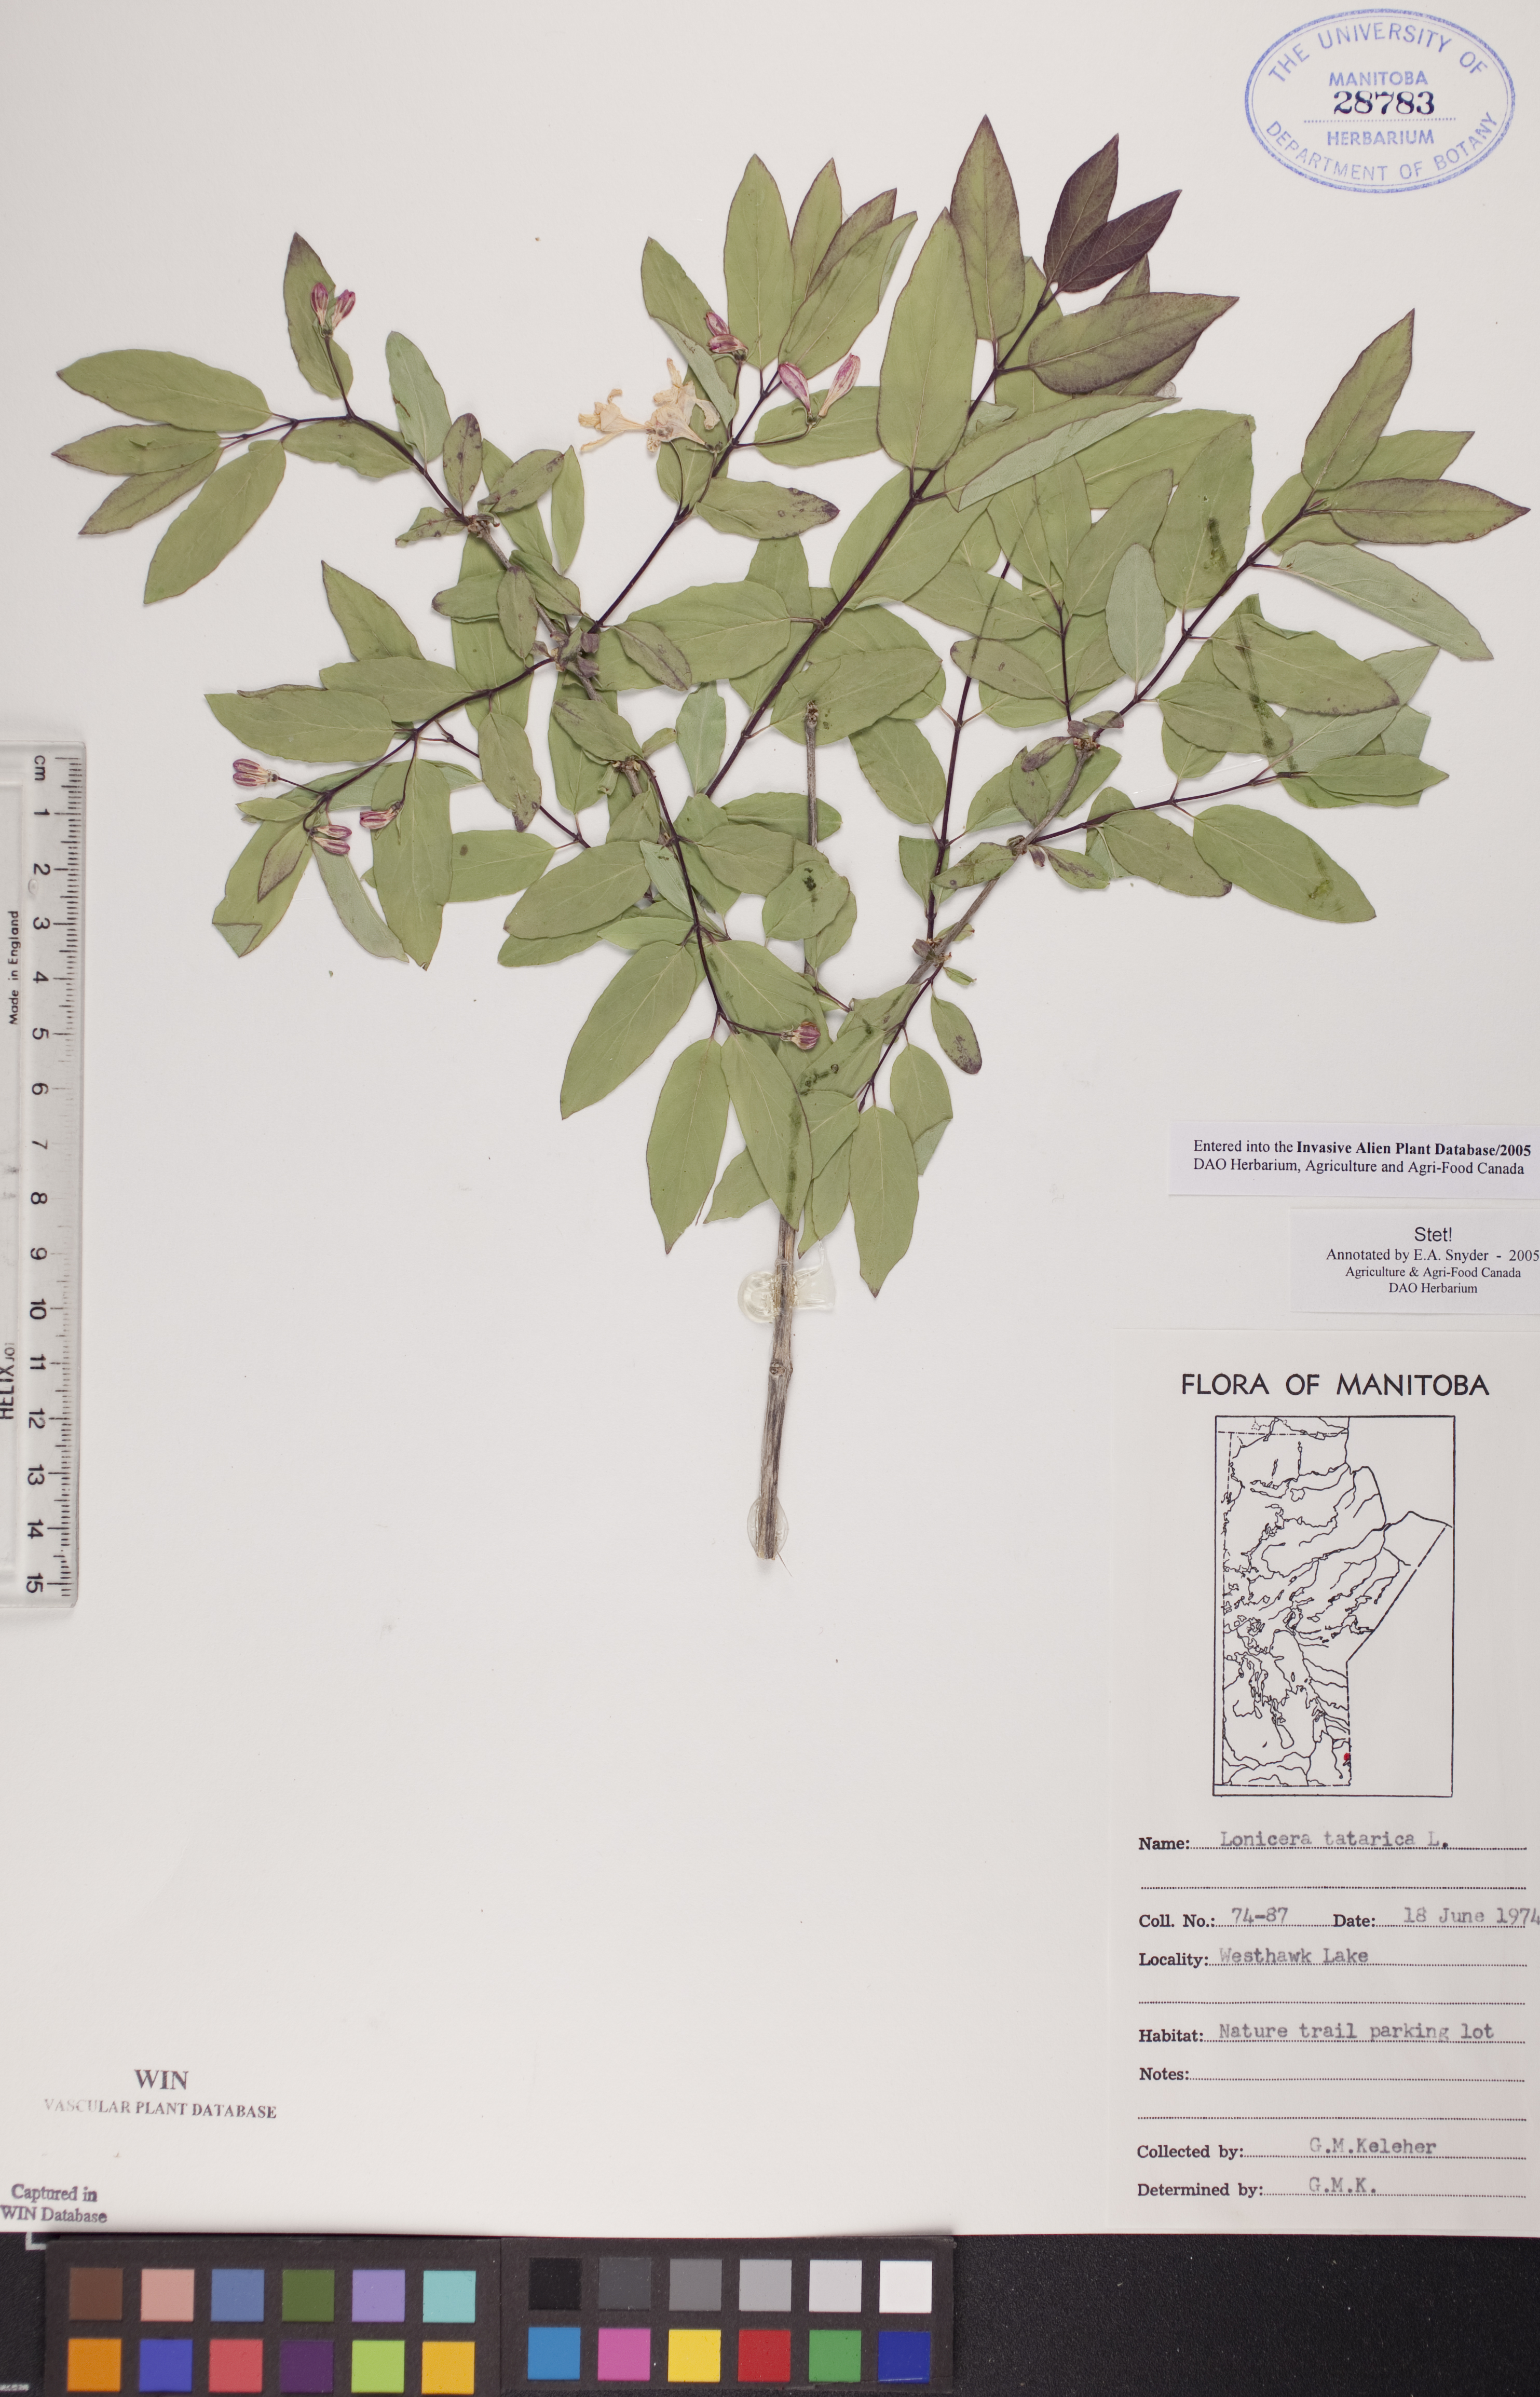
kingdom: Plantae
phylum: Tracheophyta
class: Magnoliopsida
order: Dipsacales
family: Caprifoliaceae
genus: Lonicera
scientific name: Lonicera tatarica
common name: Tatarian honeysuckle
